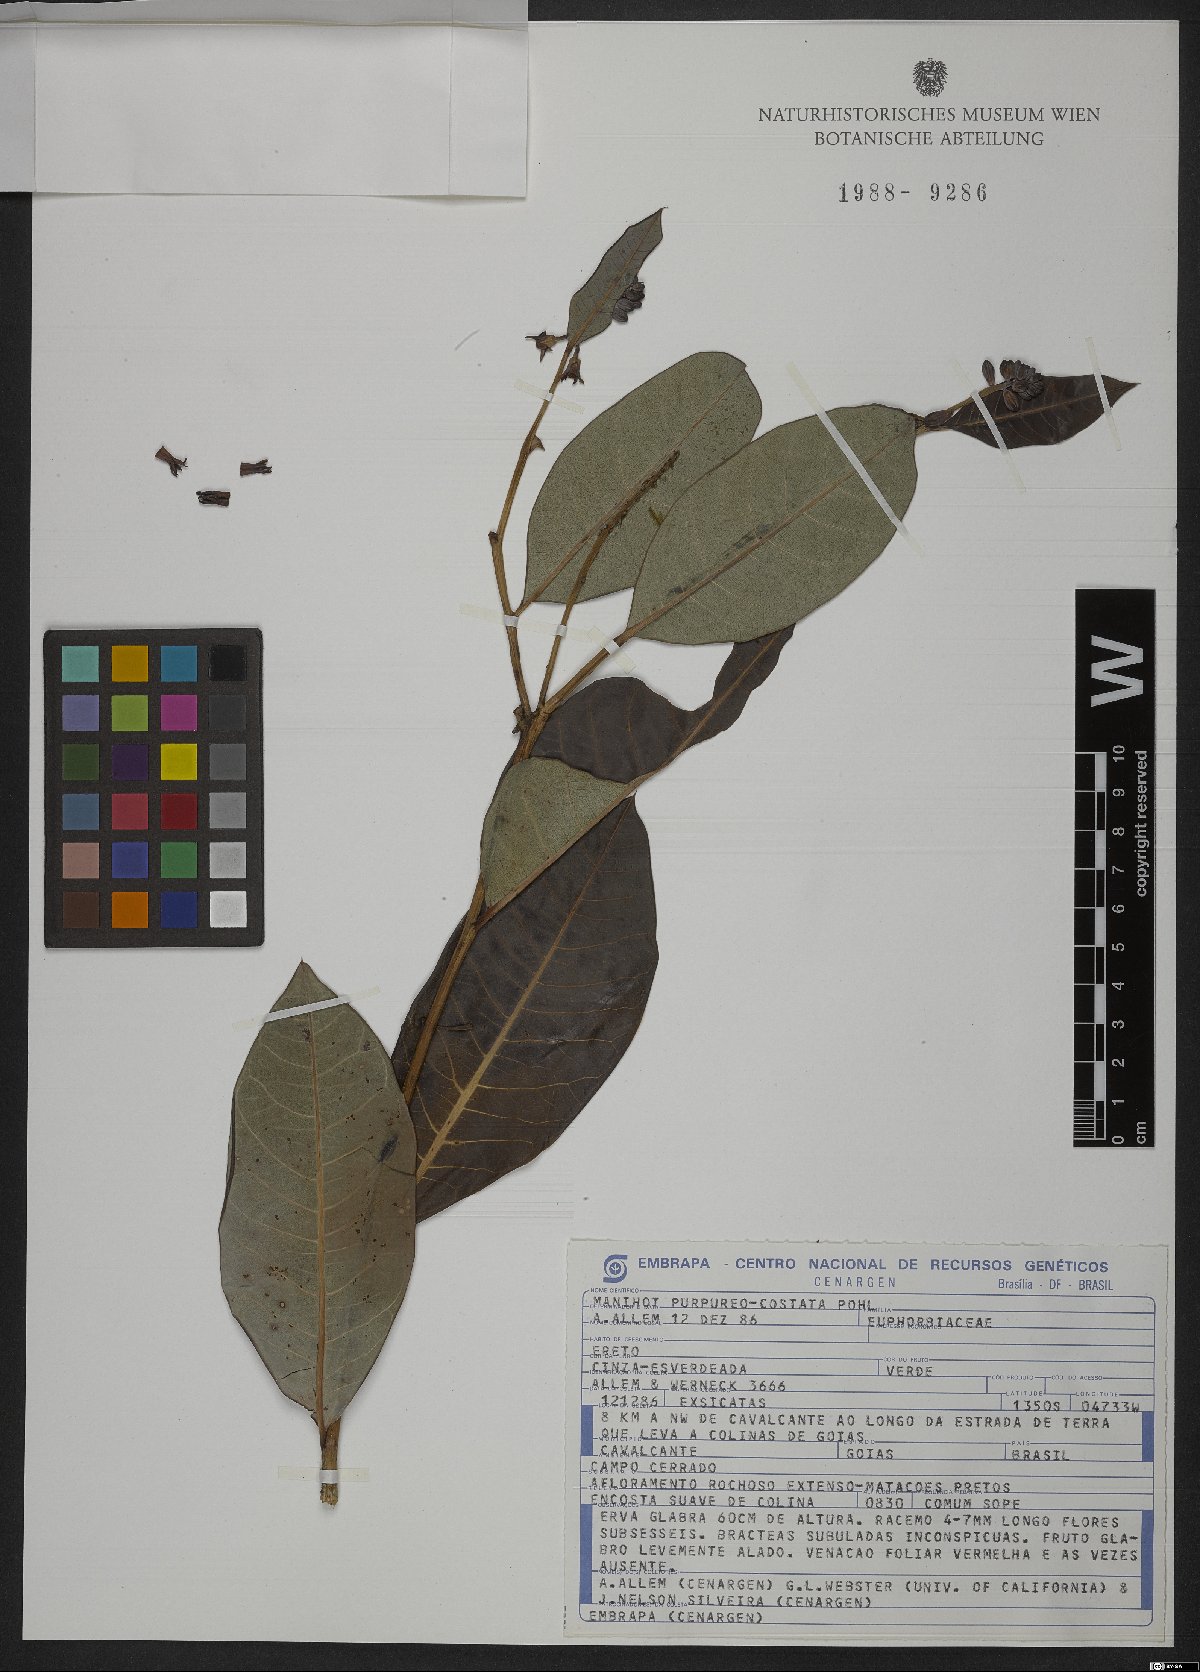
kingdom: Plantae
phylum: Tracheophyta
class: Magnoliopsida
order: Malpighiales
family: Euphorbiaceae
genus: Manihot
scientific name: Manihot purpureocostata
